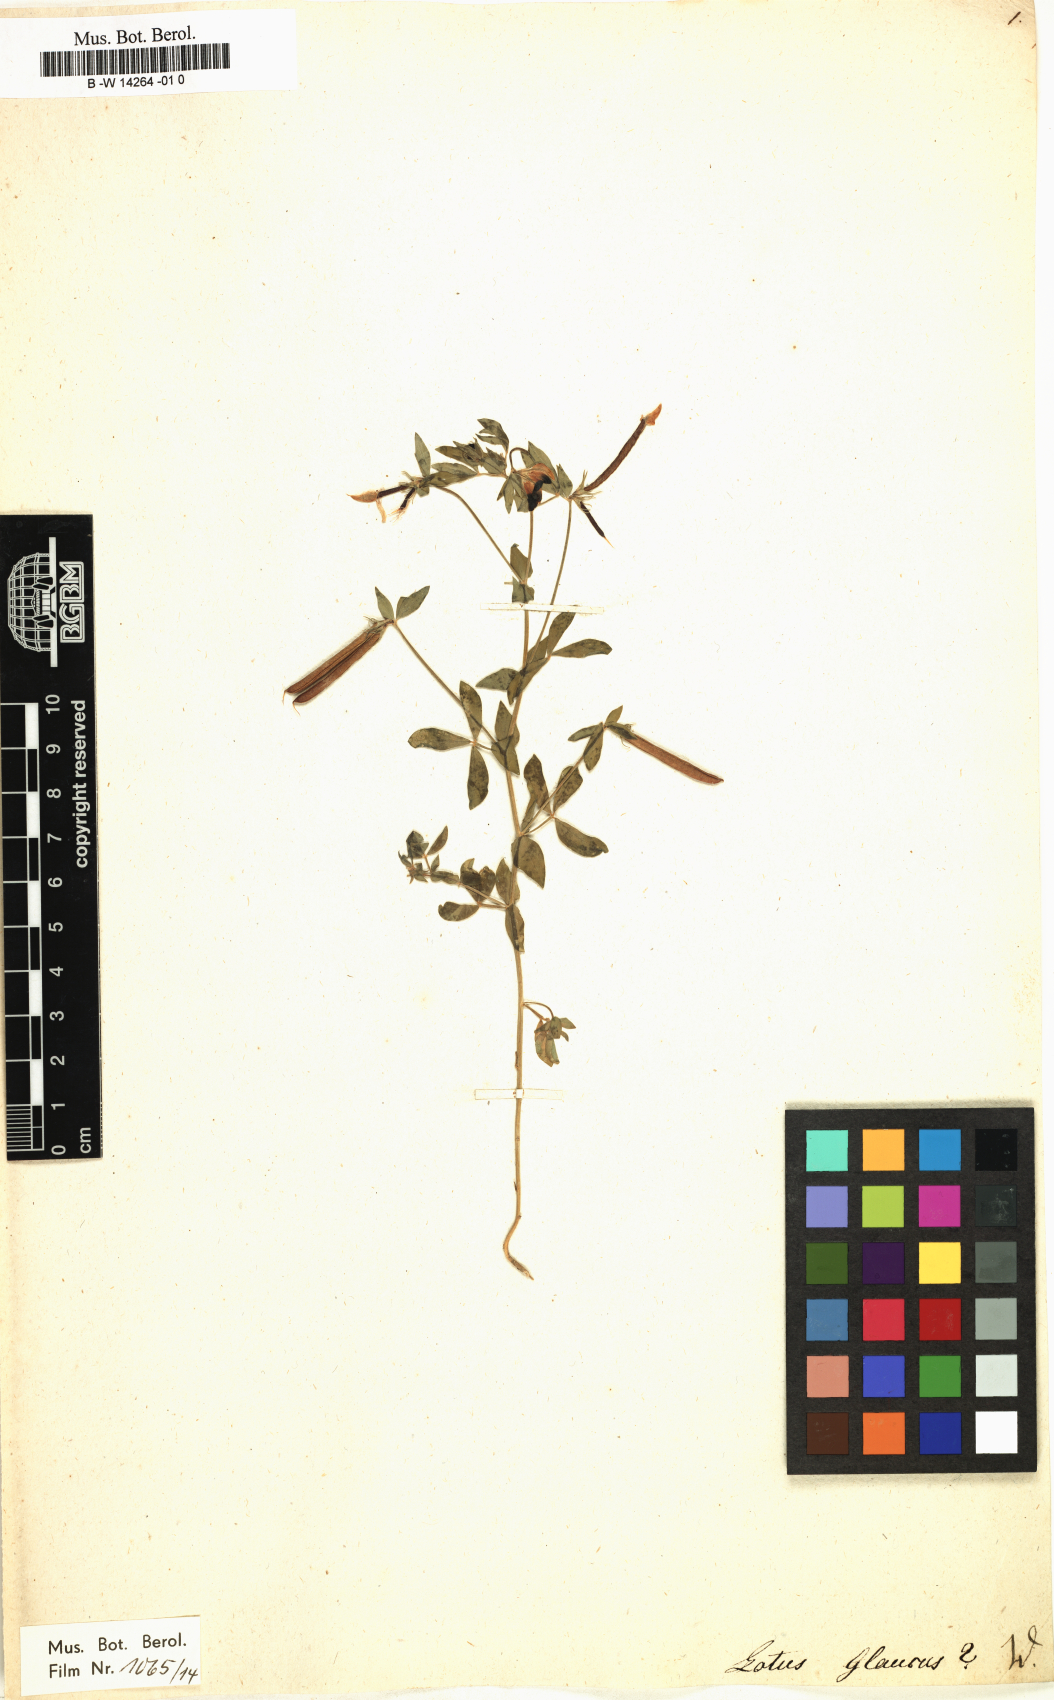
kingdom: Plantae
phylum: Tracheophyta
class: Magnoliopsida
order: Fabales
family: Fabaceae
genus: Lotus
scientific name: Lotus glaucus
